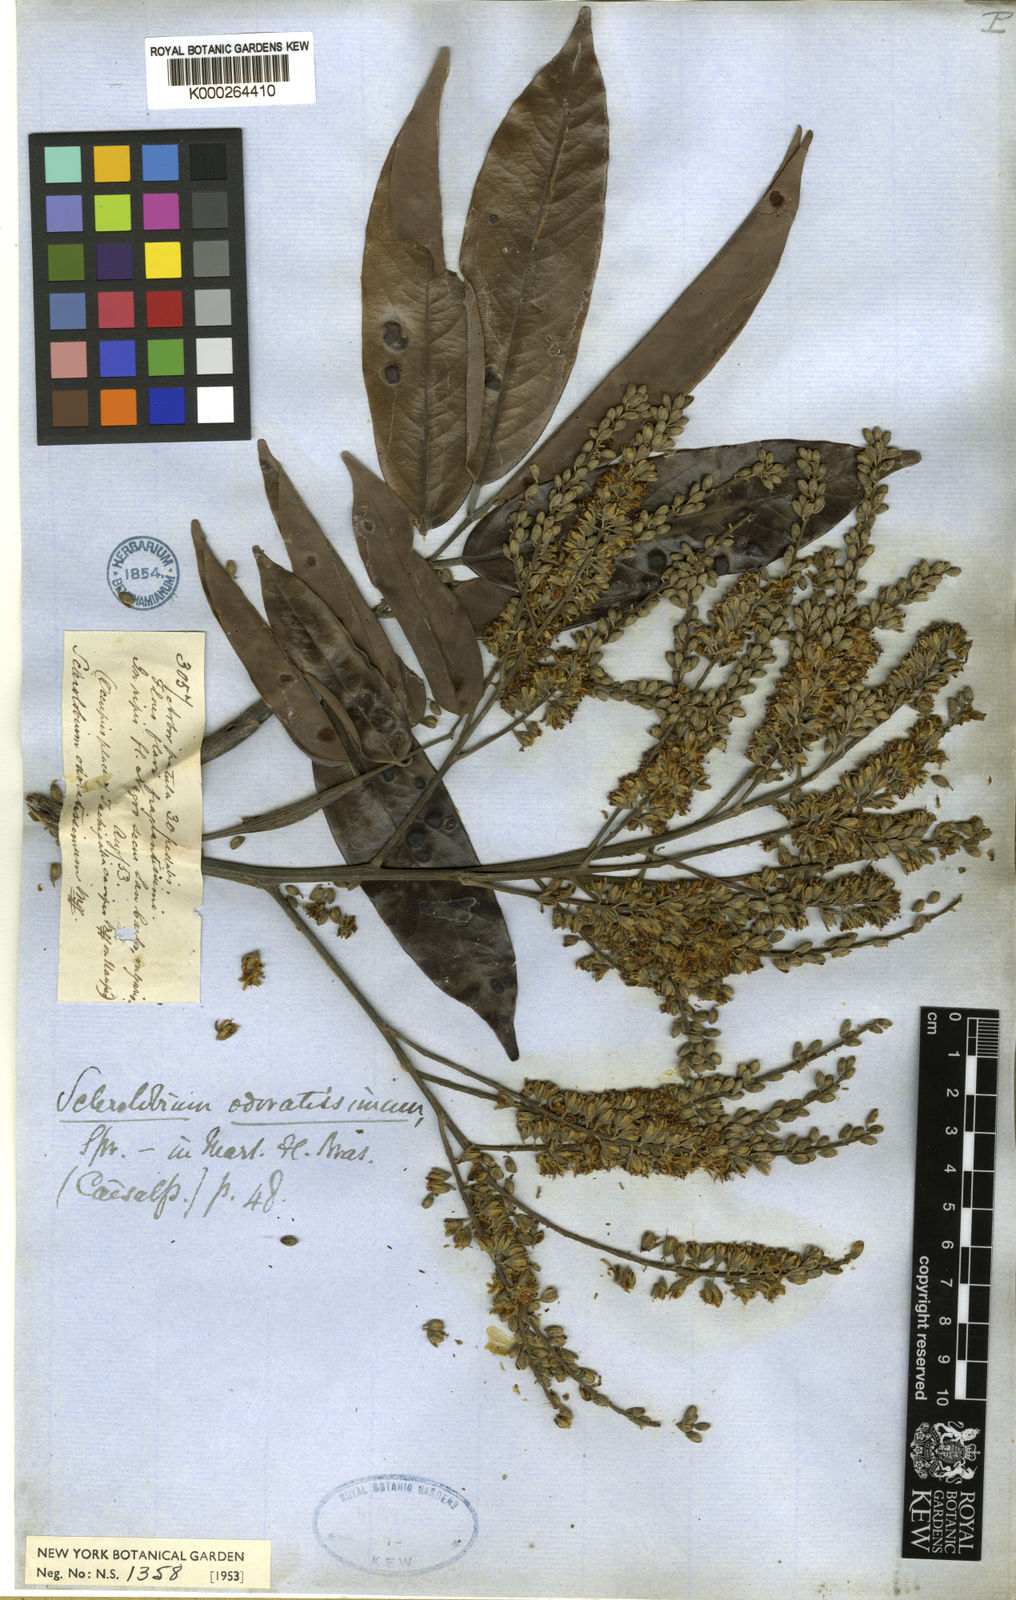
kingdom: Plantae
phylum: Tracheophyta
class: Magnoliopsida
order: Fabales
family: Fabaceae
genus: Tachigali
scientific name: Tachigali odoratissima
